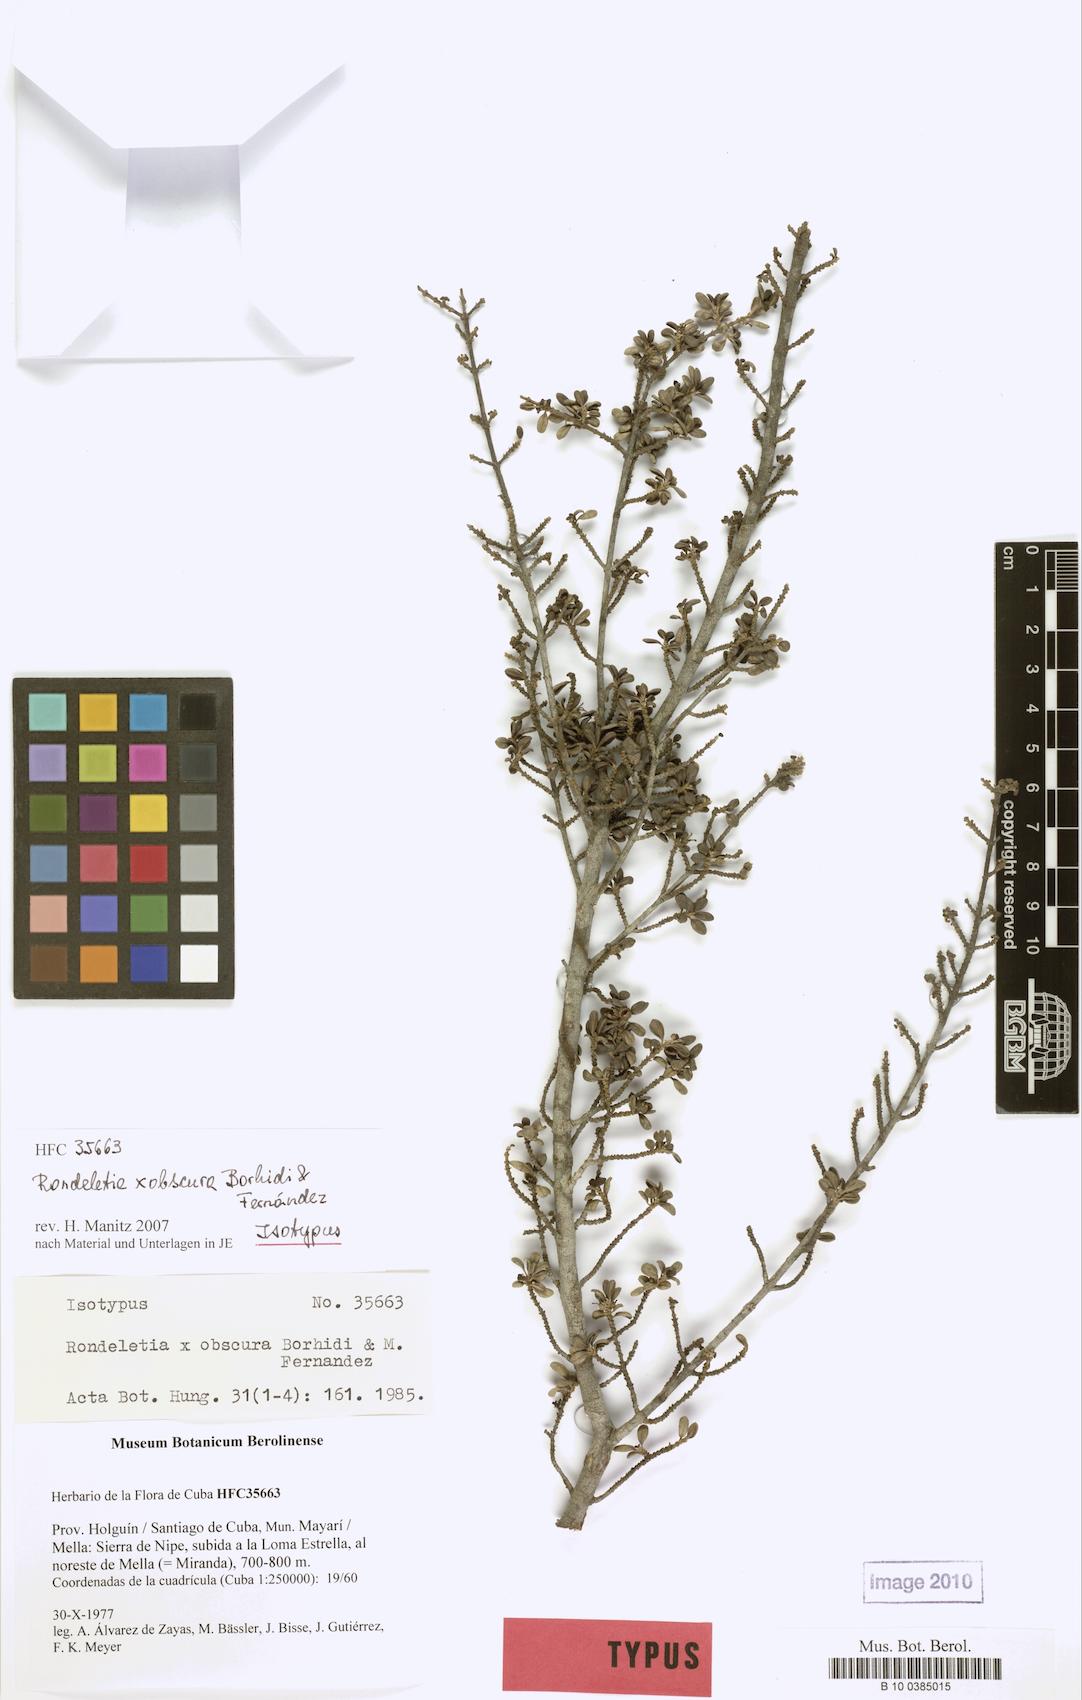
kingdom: Plantae
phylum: Tracheophyta
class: Magnoliopsida
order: Gentianales
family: Rubiaceae
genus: Rondeletia
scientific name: Rondeletia obscura
